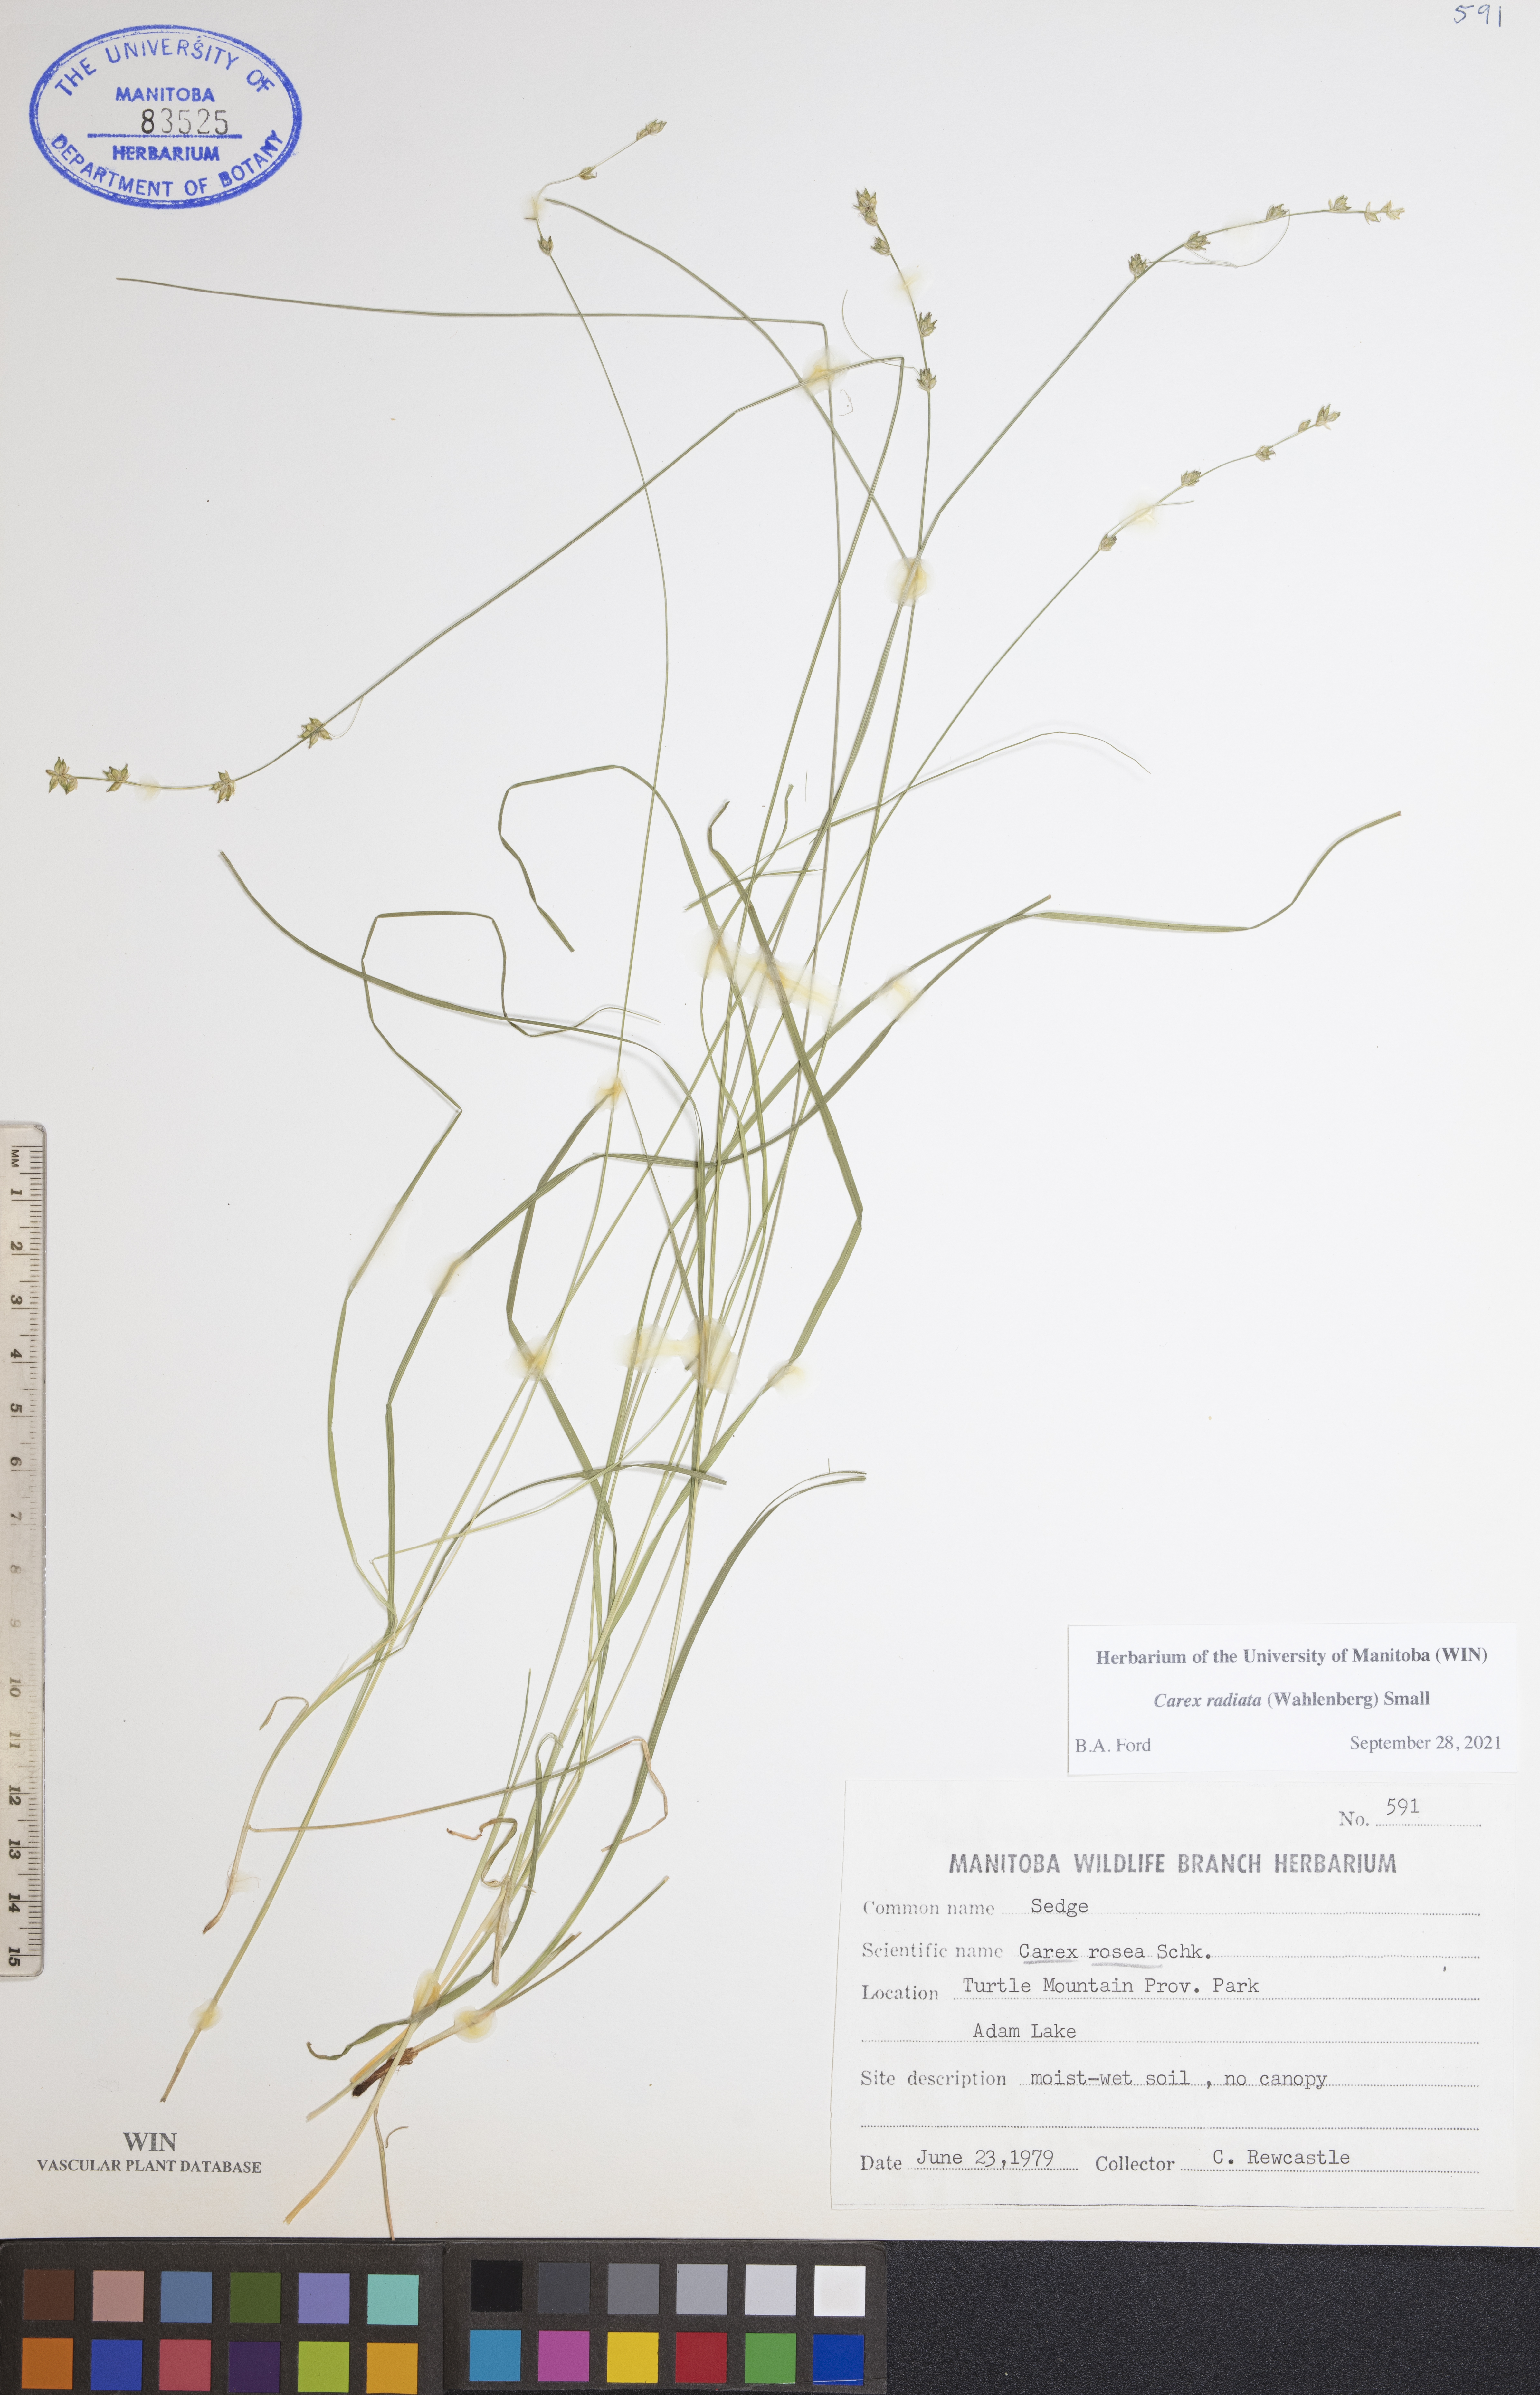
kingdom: Plantae
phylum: Tracheophyta
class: Liliopsida
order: Poales
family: Cyperaceae
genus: Carex
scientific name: Carex radiata
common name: Eastern star sedge
